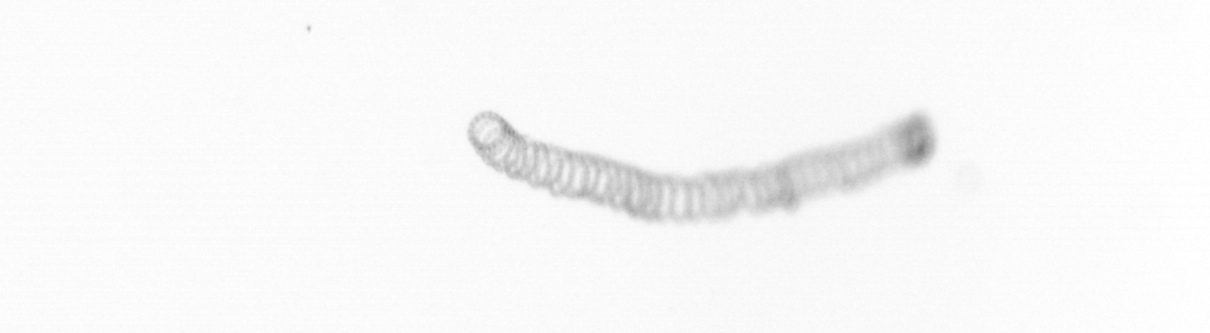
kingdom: Chromista
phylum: Ochrophyta
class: Bacillariophyceae
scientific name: Bacillariophyceae
